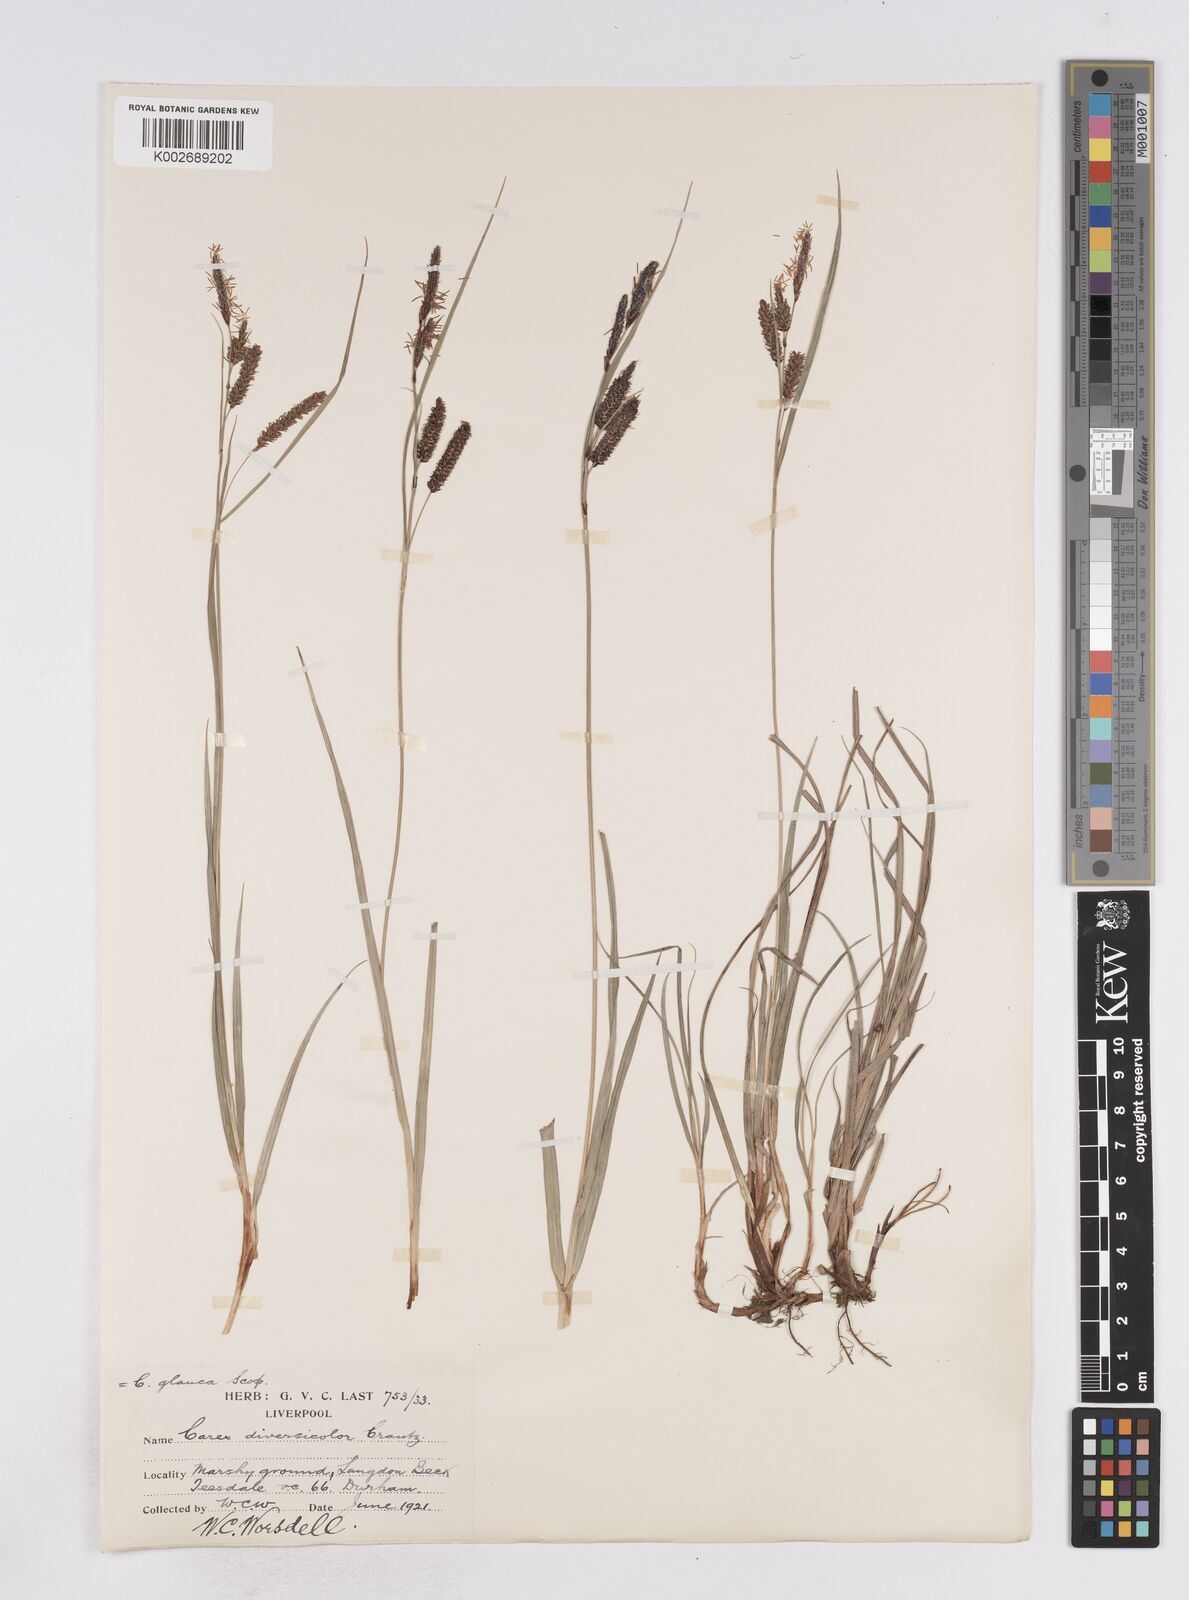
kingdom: Plantae
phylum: Tracheophyta
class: Liliopsida
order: Poales
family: Cyperaceae
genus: Carex
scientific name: Carex flacca
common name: Glaucous sedge
